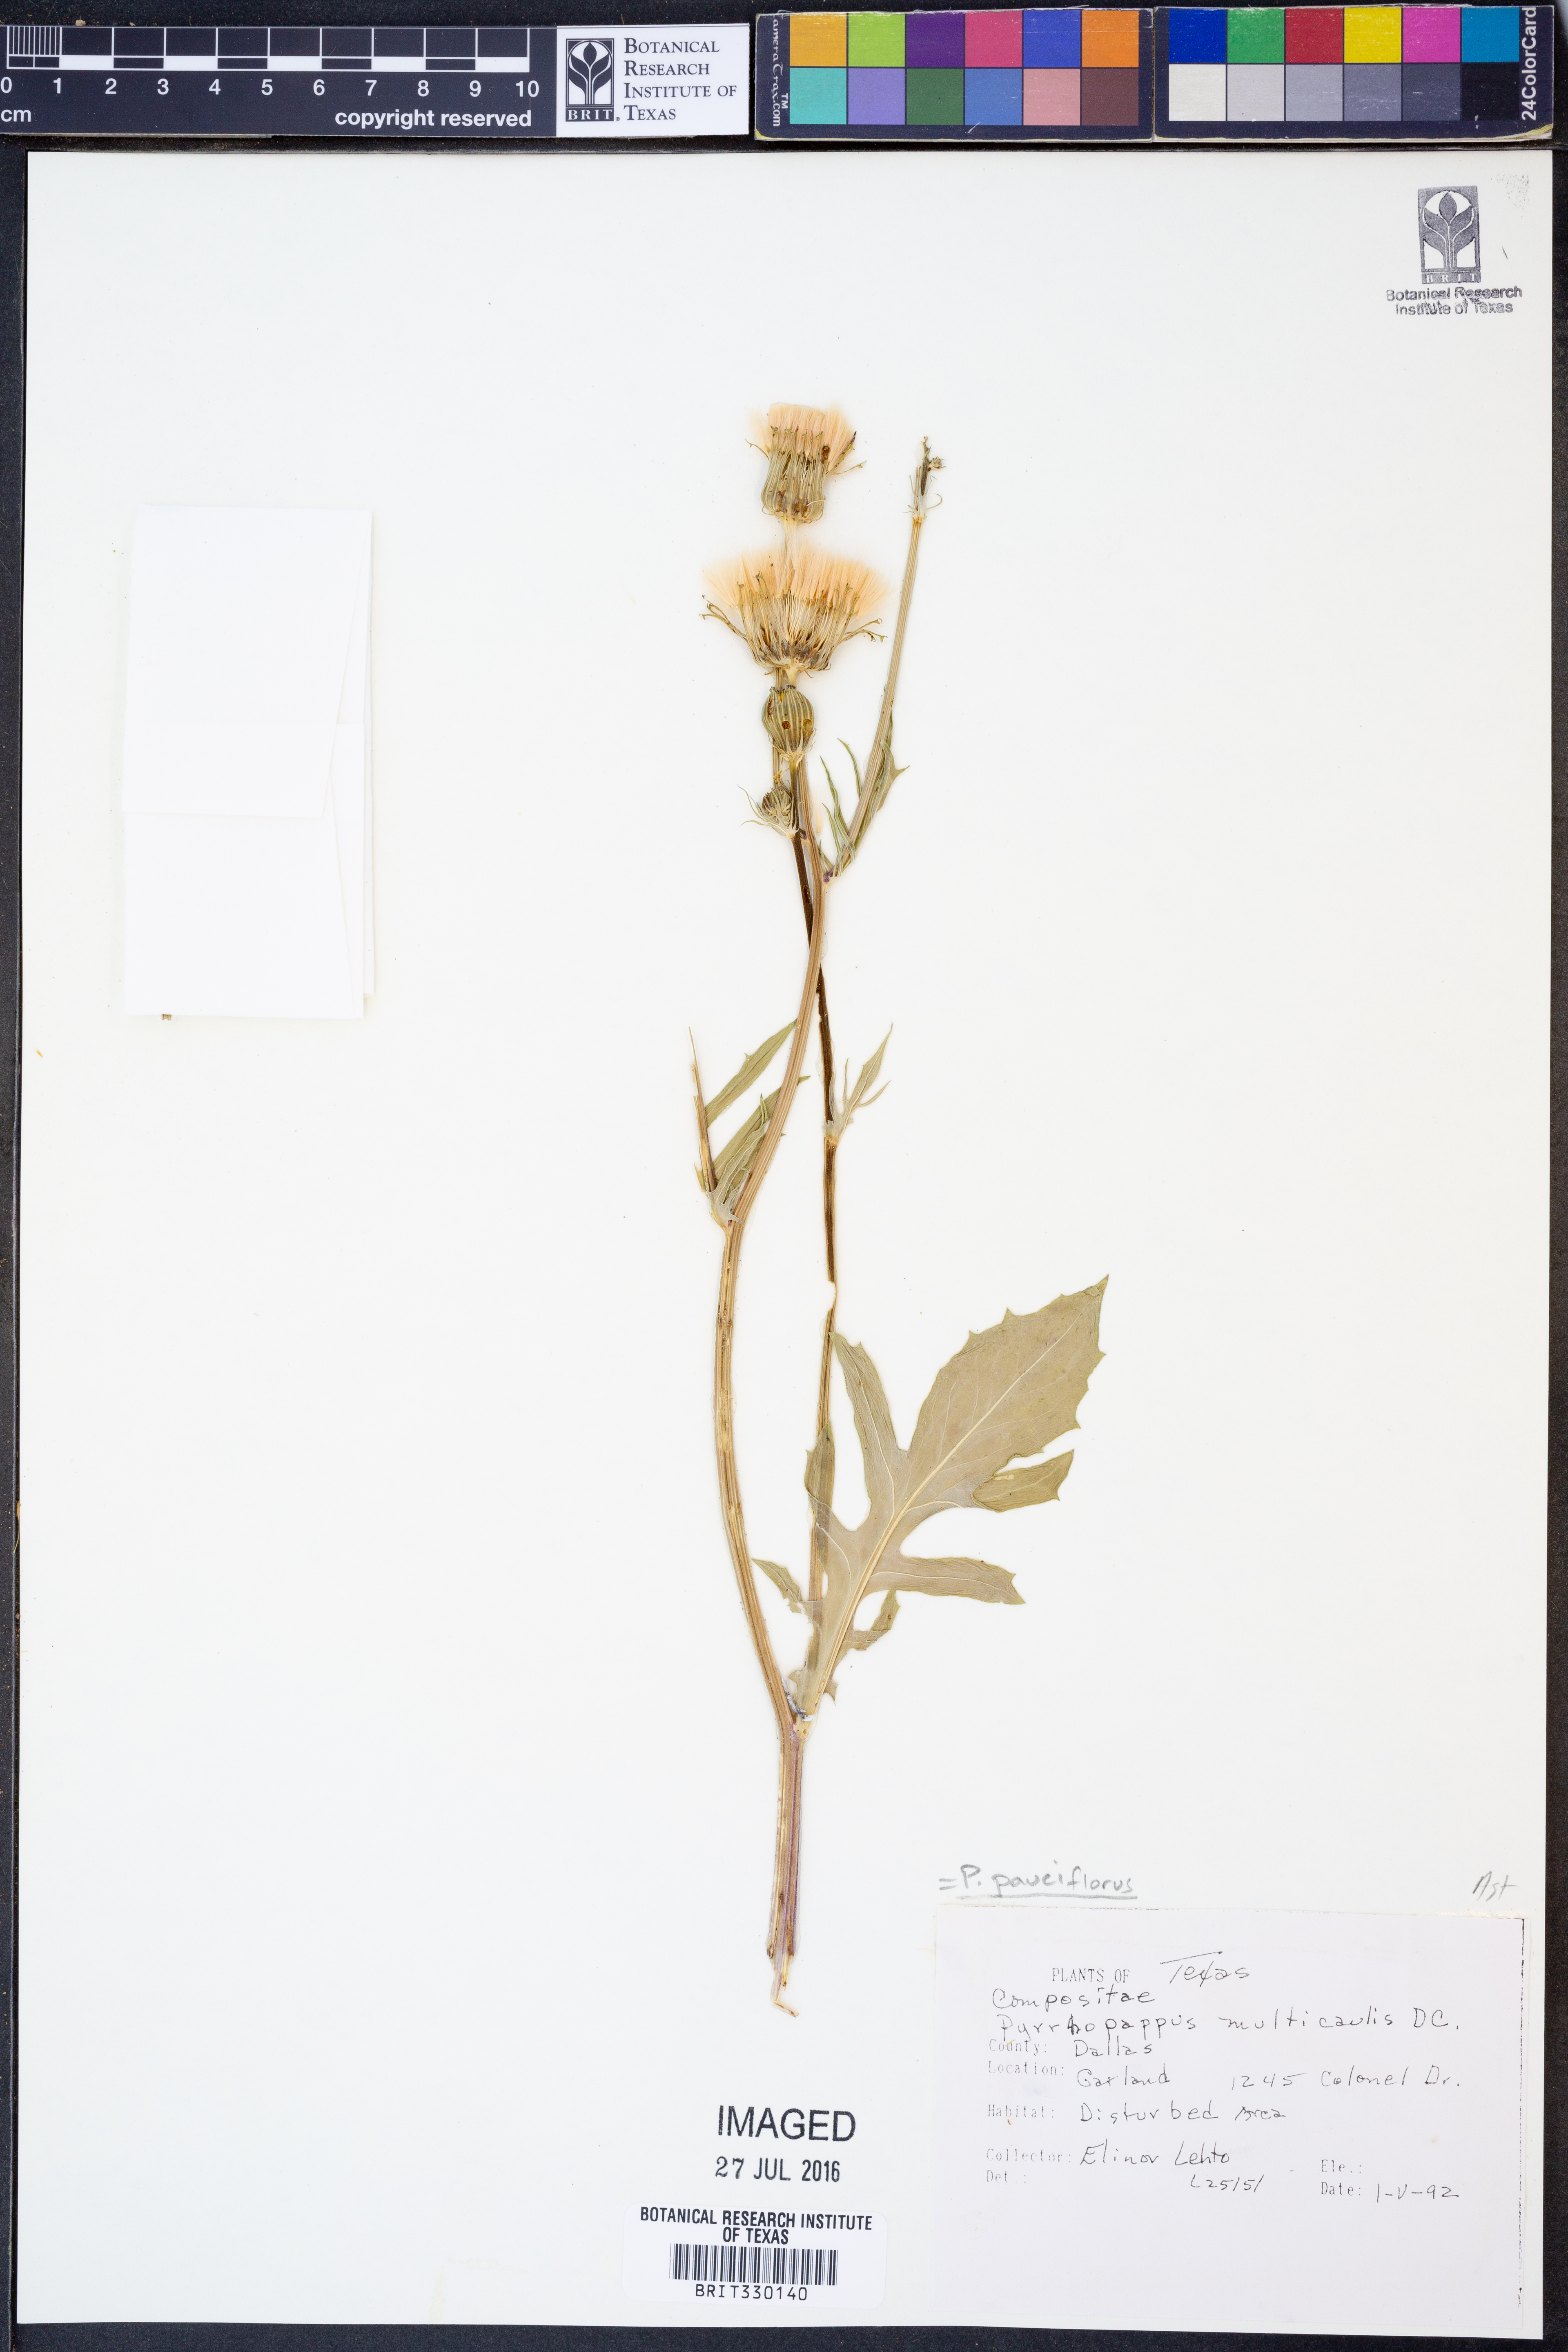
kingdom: Plantae
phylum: Tracheophyta
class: Magnoliopsida
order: Asterales
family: Asteraceae
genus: Pyrrhopappus
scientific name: Pyrrhopappus pauciflorus
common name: Texas false dandelion
